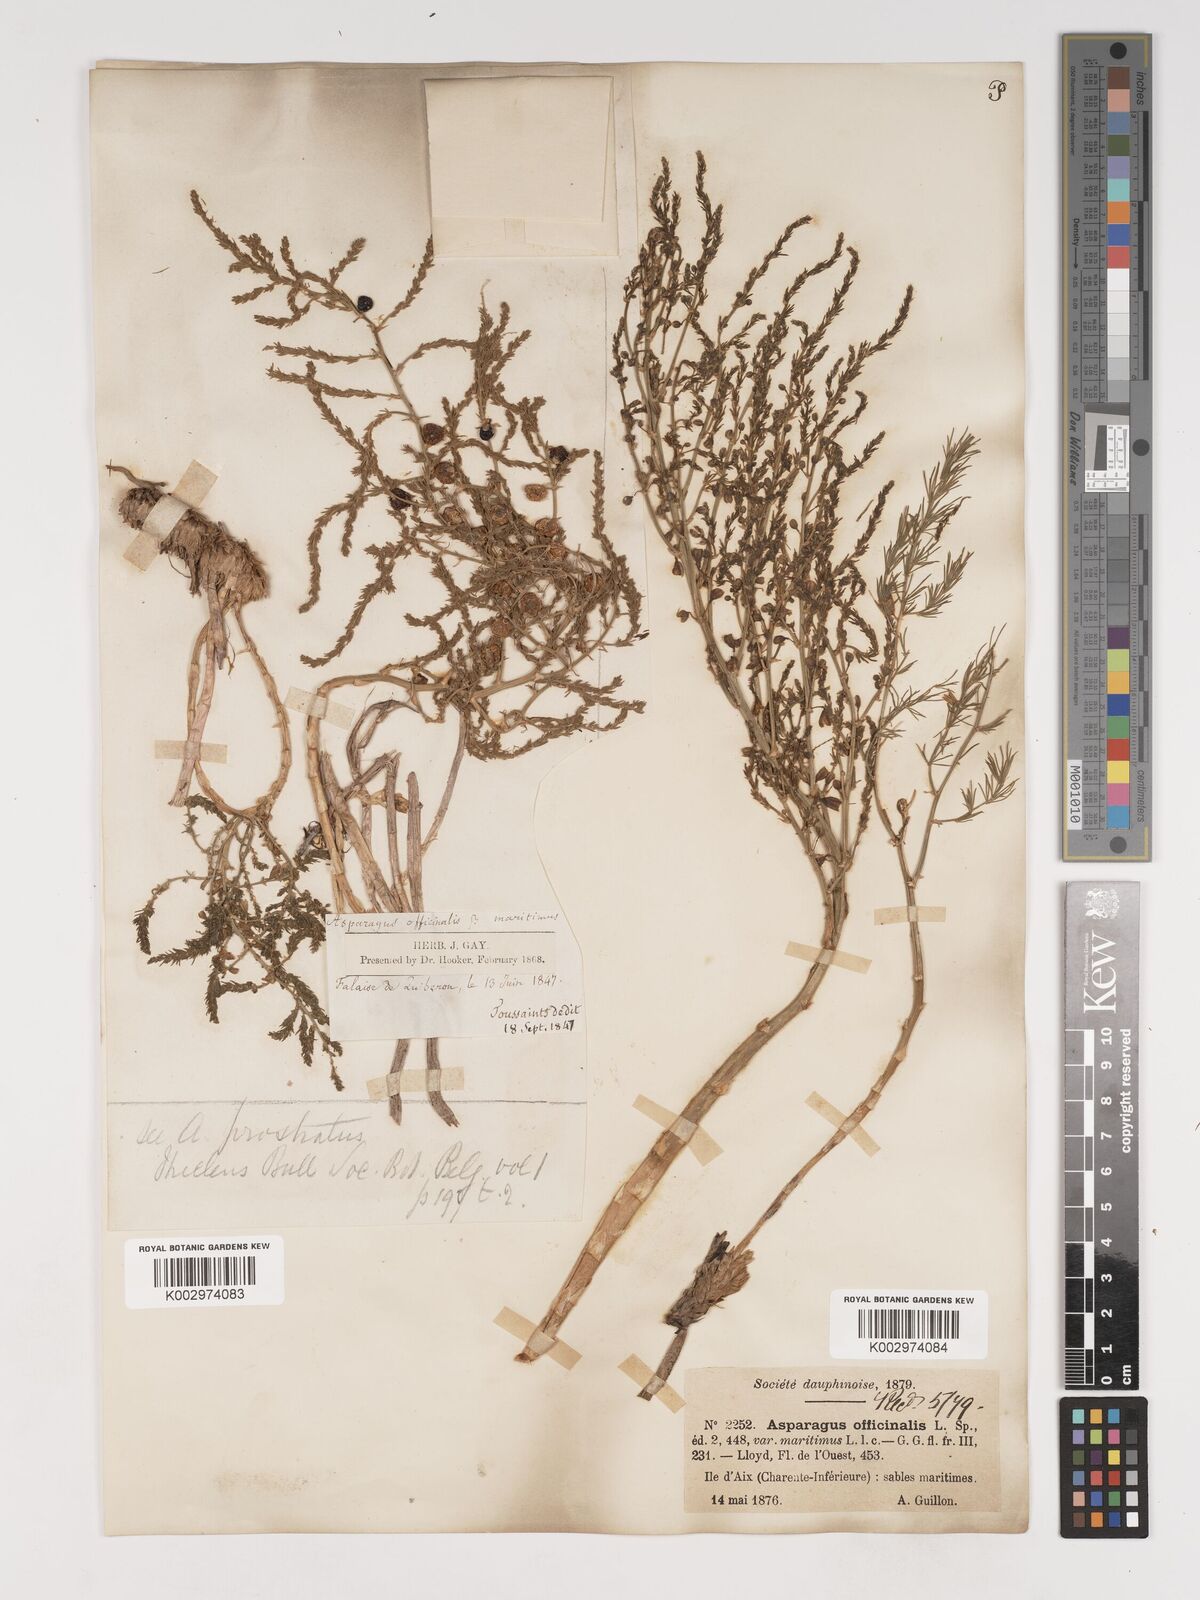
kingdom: Plantae
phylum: Tracheophyta
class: Liliopsida
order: Asparagales
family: Asparagaceae
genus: Asparagus
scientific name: Asparagus officinalis
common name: Garden asparagus
